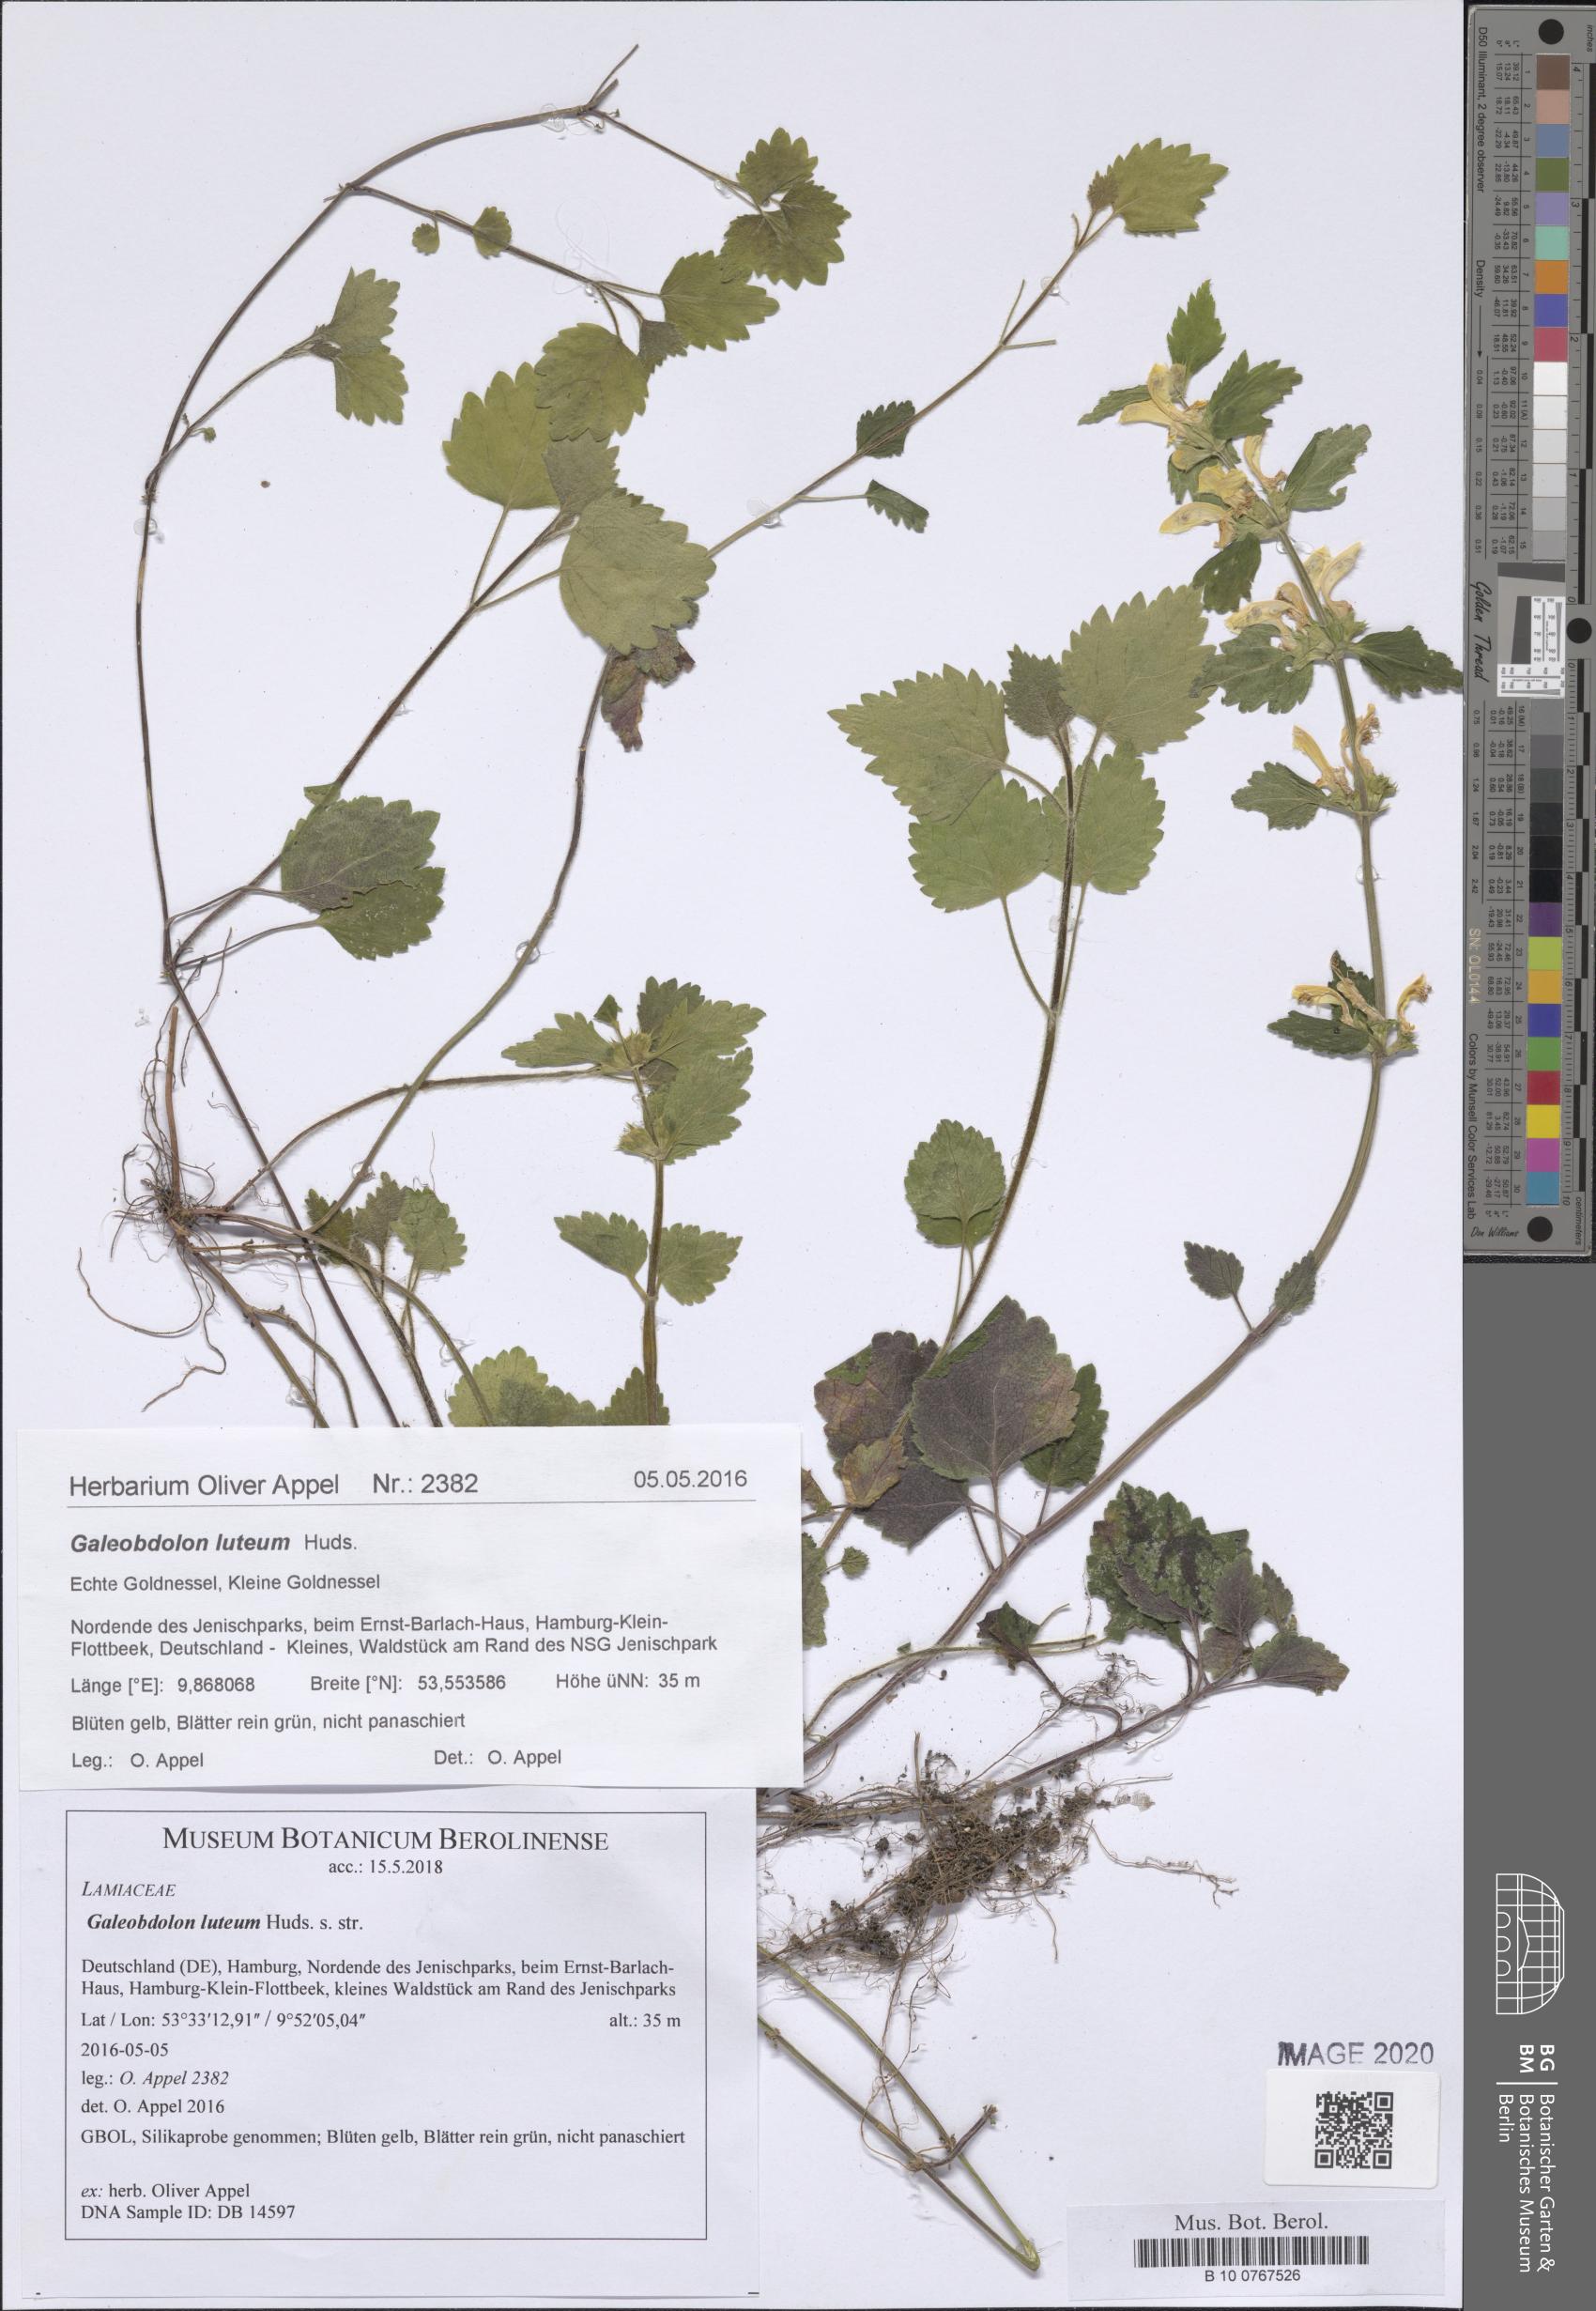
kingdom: Plantae
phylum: Tracheophyta
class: Magnoliopsida
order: Lamiales
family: Lamiaceae
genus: Lamium
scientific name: Lamium galeobdolon
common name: Yellow archangel
